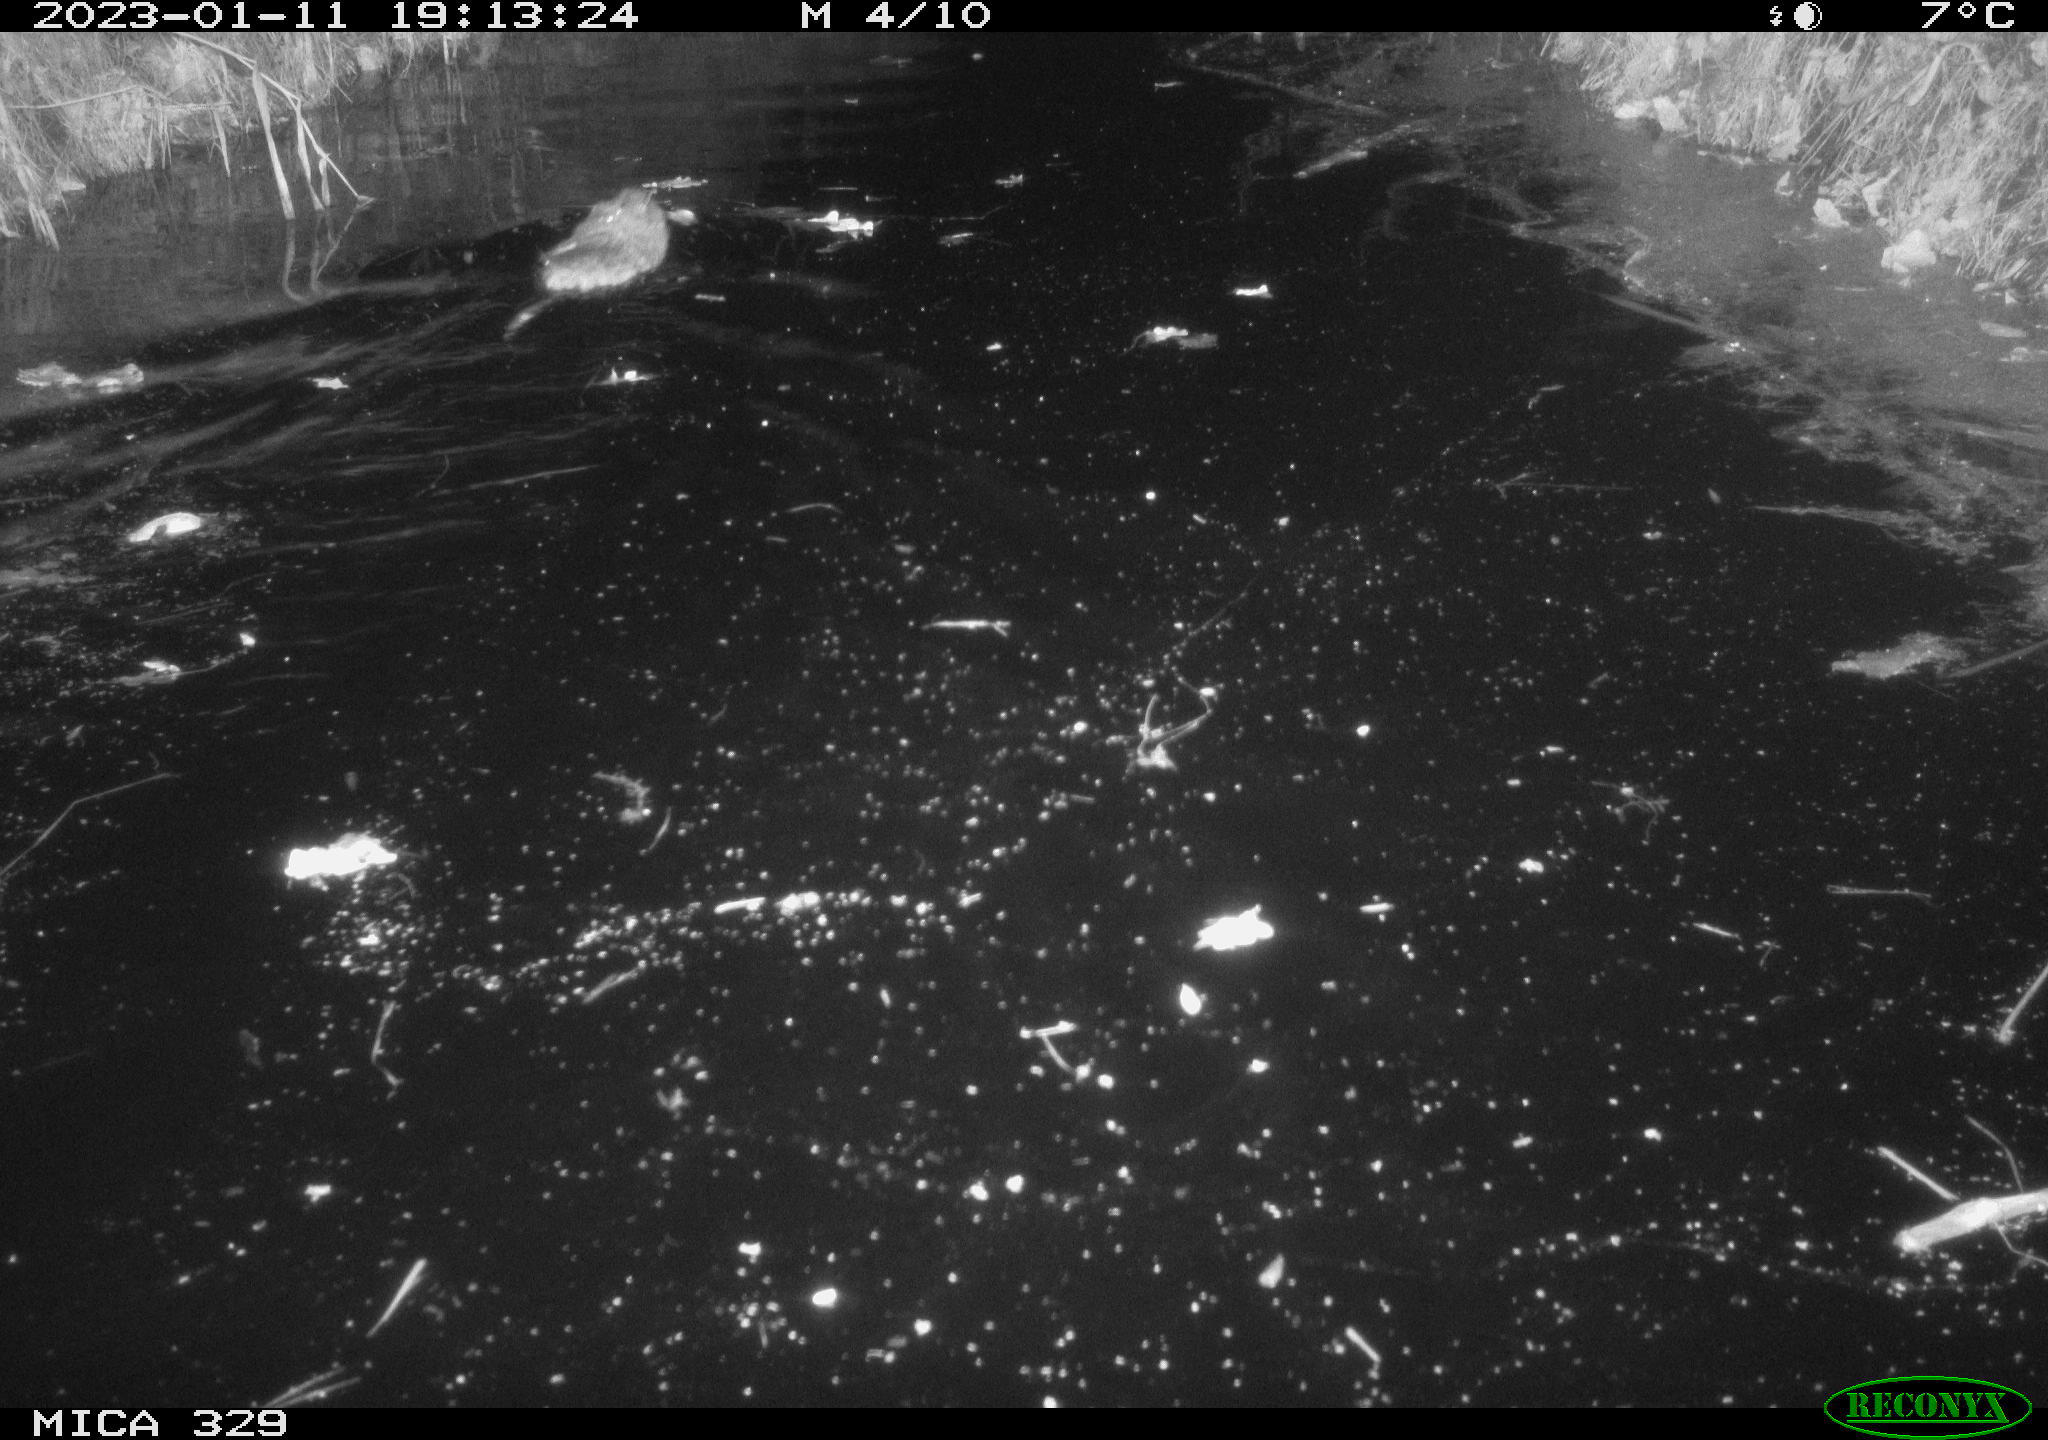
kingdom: Animalia
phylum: Chordata
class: Mammalia
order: Rodentia
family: Cricetidae
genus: Ondatra
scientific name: Ondatra zibethicus
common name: Muskrat
